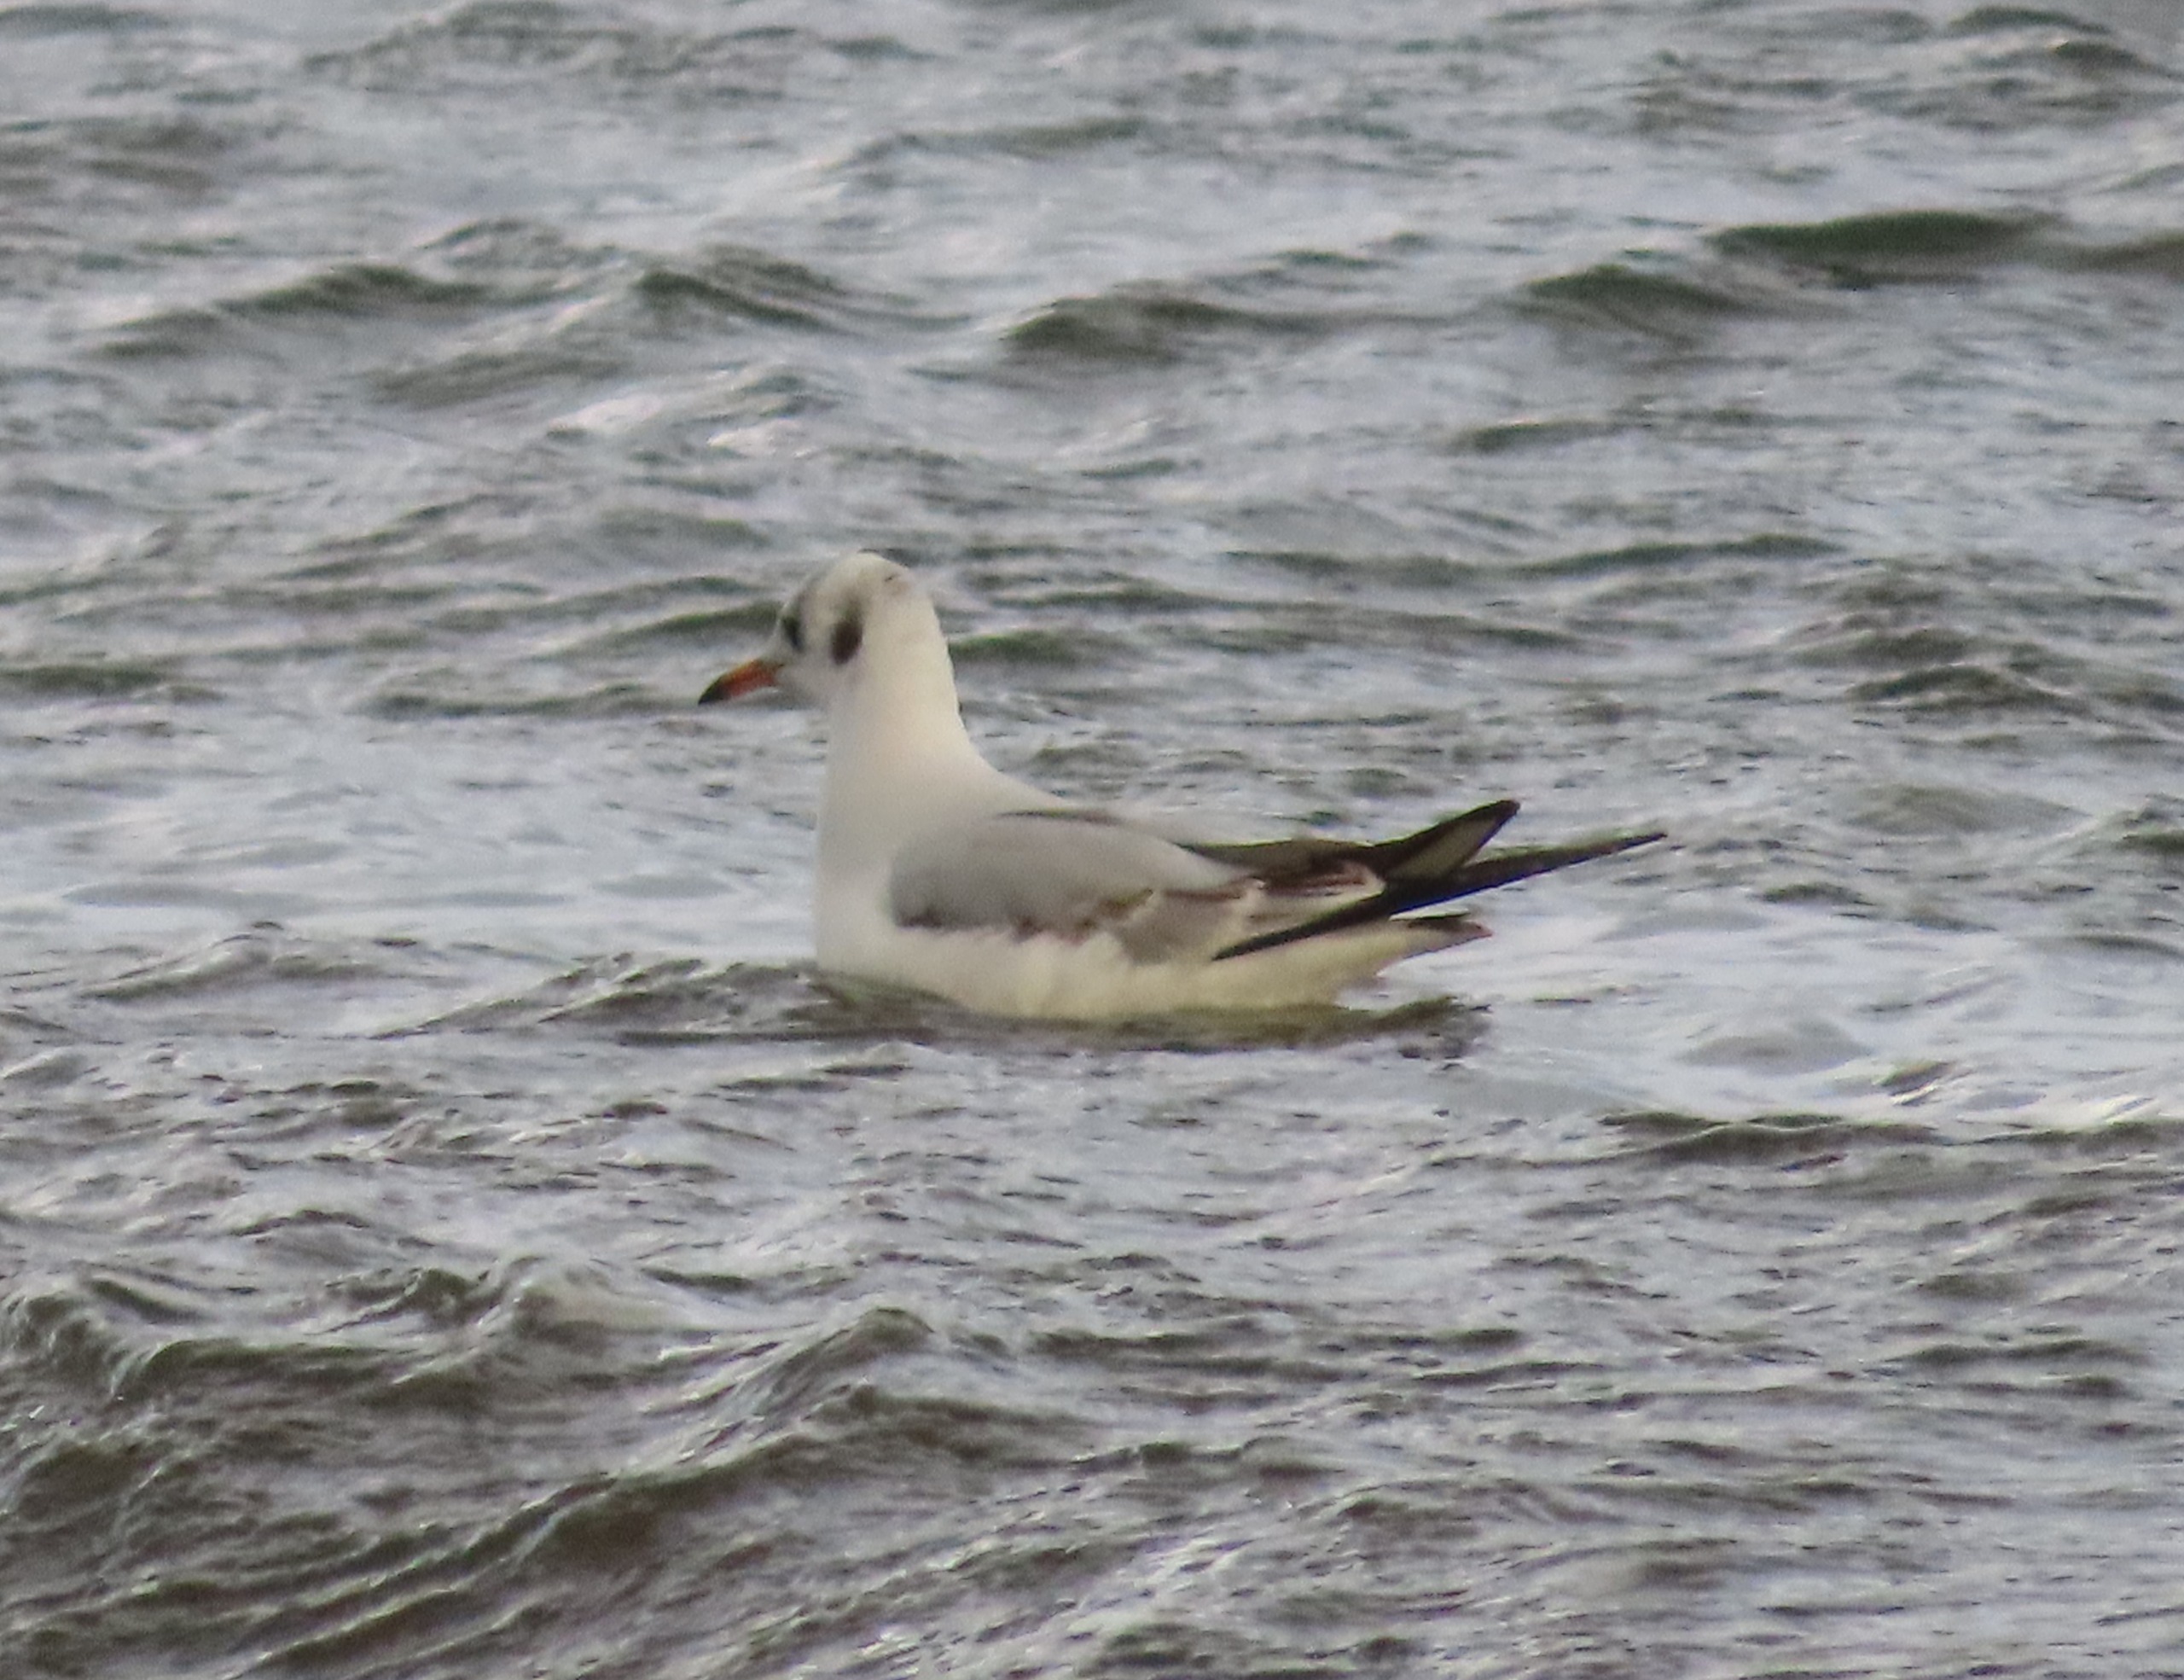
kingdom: Animalia
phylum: Chordata
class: Aves
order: Charadriiformes
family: Laridae
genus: Chroicocephalus
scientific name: Chroicocephalus ridibundus
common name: Hættemåge
